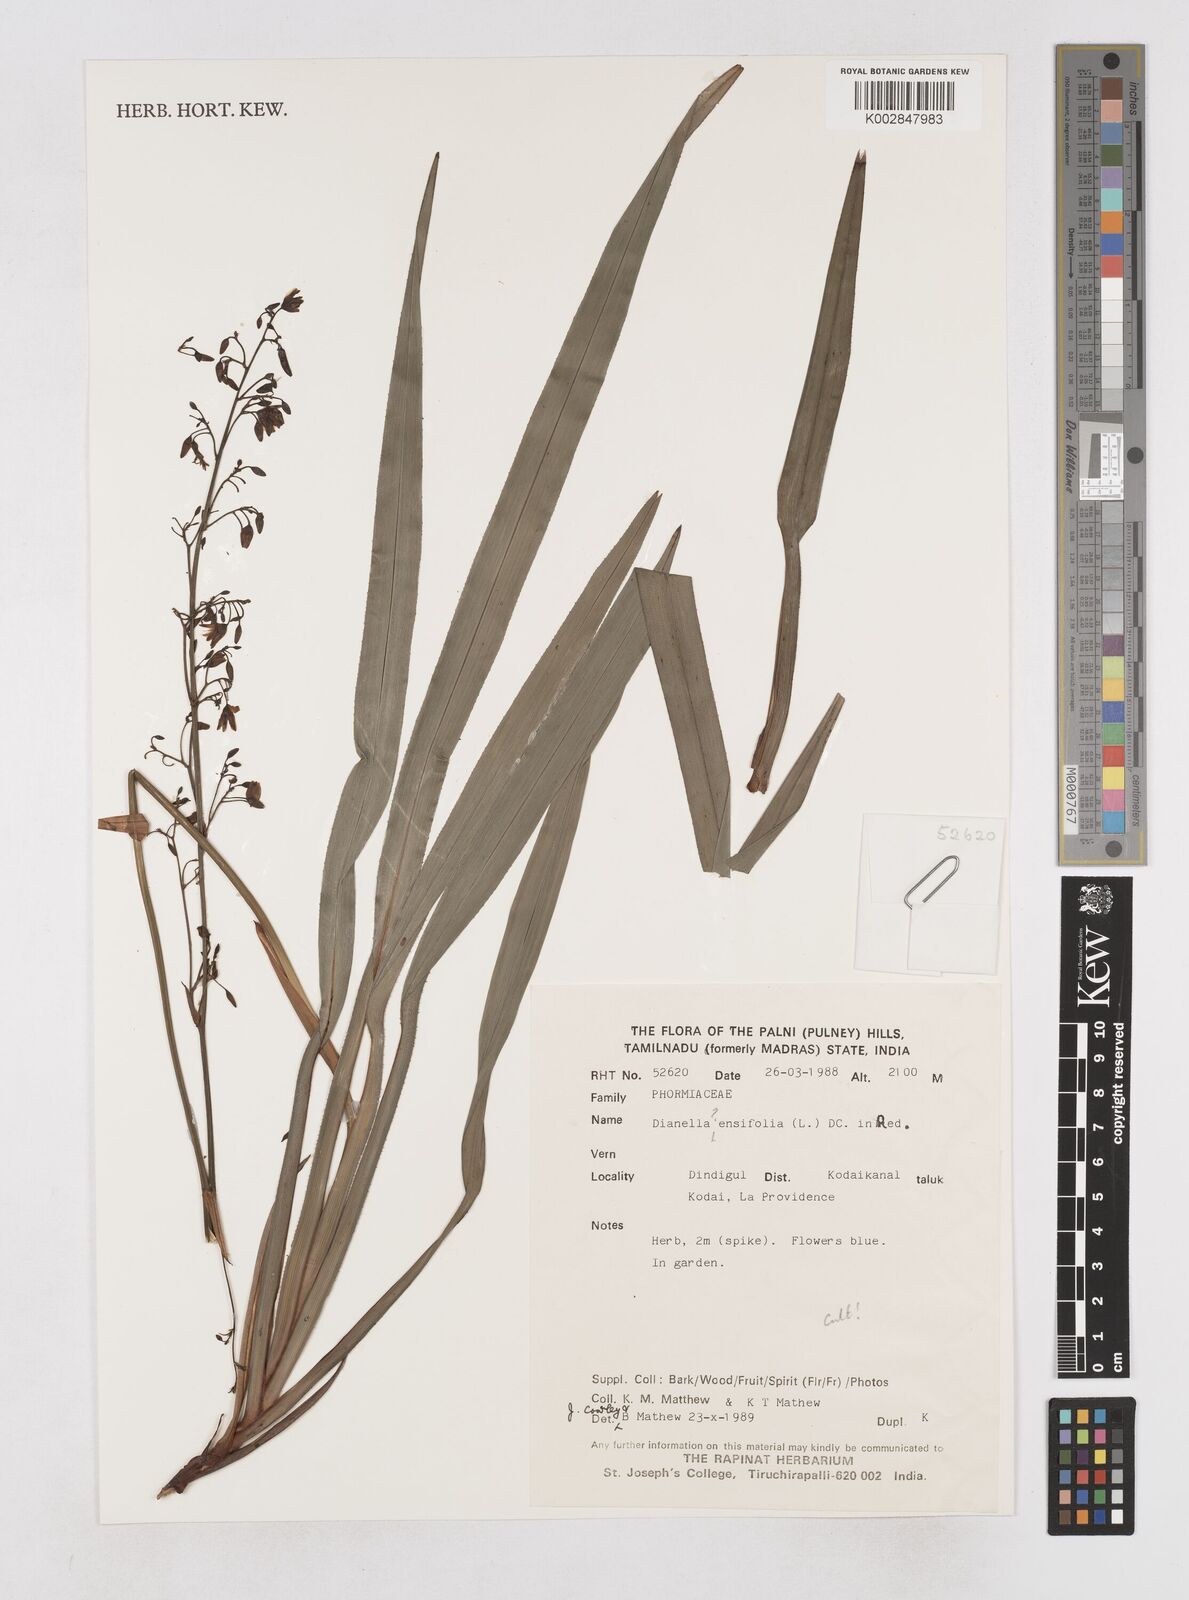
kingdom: Plantae
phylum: Tracheophyta
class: Liliopsida
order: Asparagales
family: Asphodelaceae
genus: Dianella
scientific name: Dianella ensifolia
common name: New zealand lilyplant
